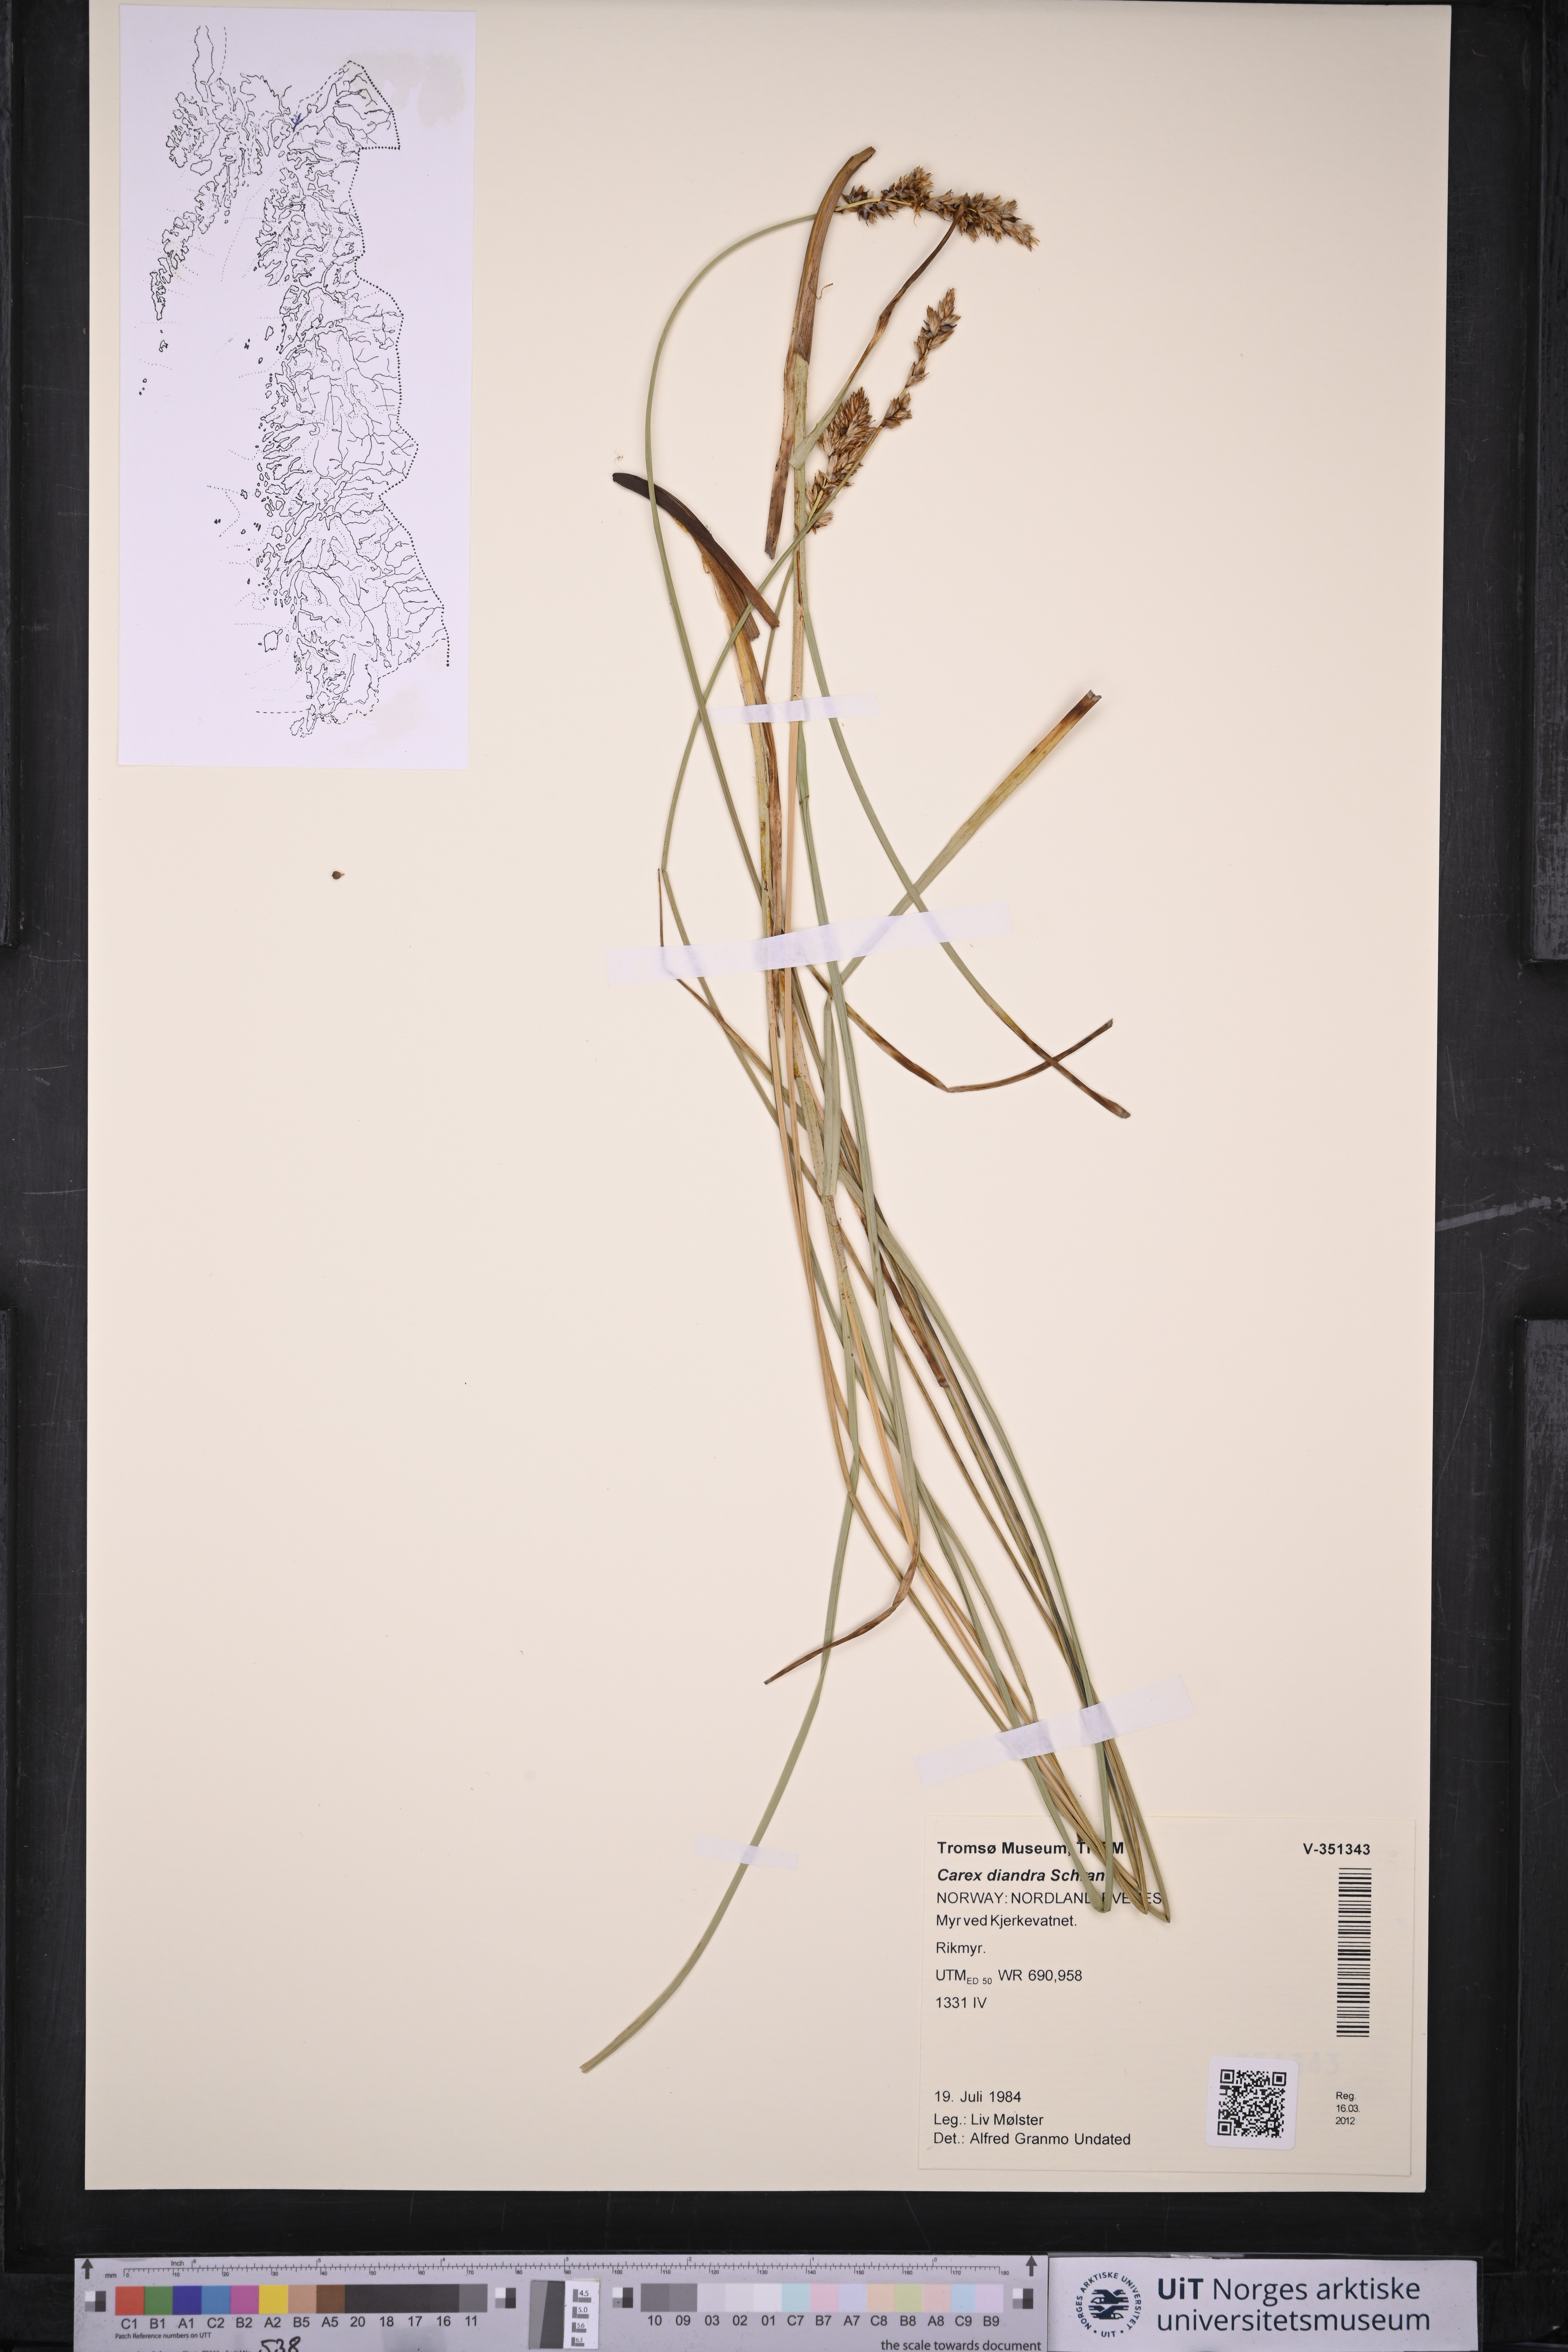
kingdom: Plantae
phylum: Tracheophyta
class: Liliopsida
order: Poales
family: Cyperaceae
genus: Carex
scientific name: Carex diandra
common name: Lesser tussock-sedge
